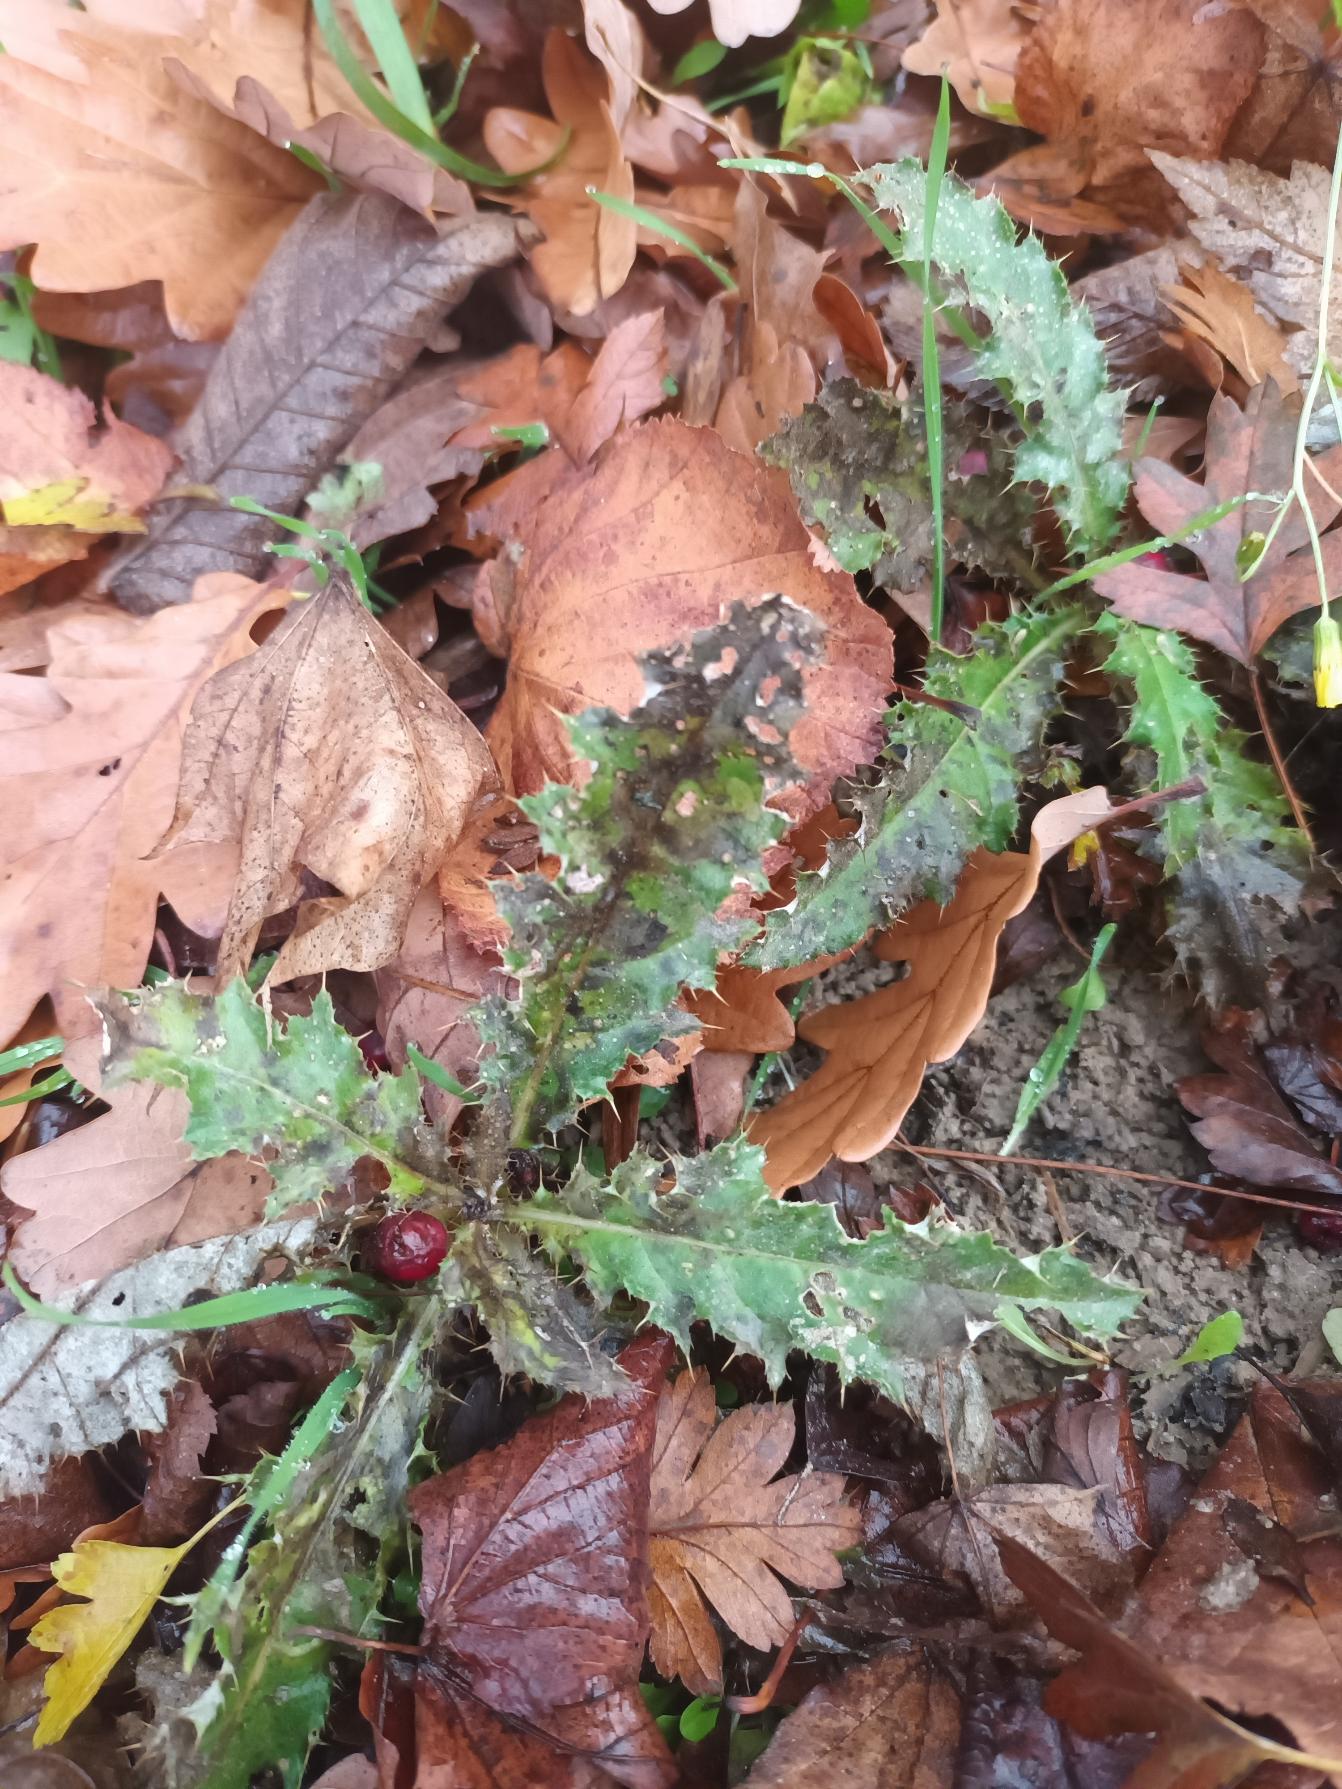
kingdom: Plantae
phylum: Tracheophyta
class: Magnoliopsida
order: Asterales
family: Asteraceae
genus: Cirsium
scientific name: Cirsium arvense
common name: Ager-tidsel
